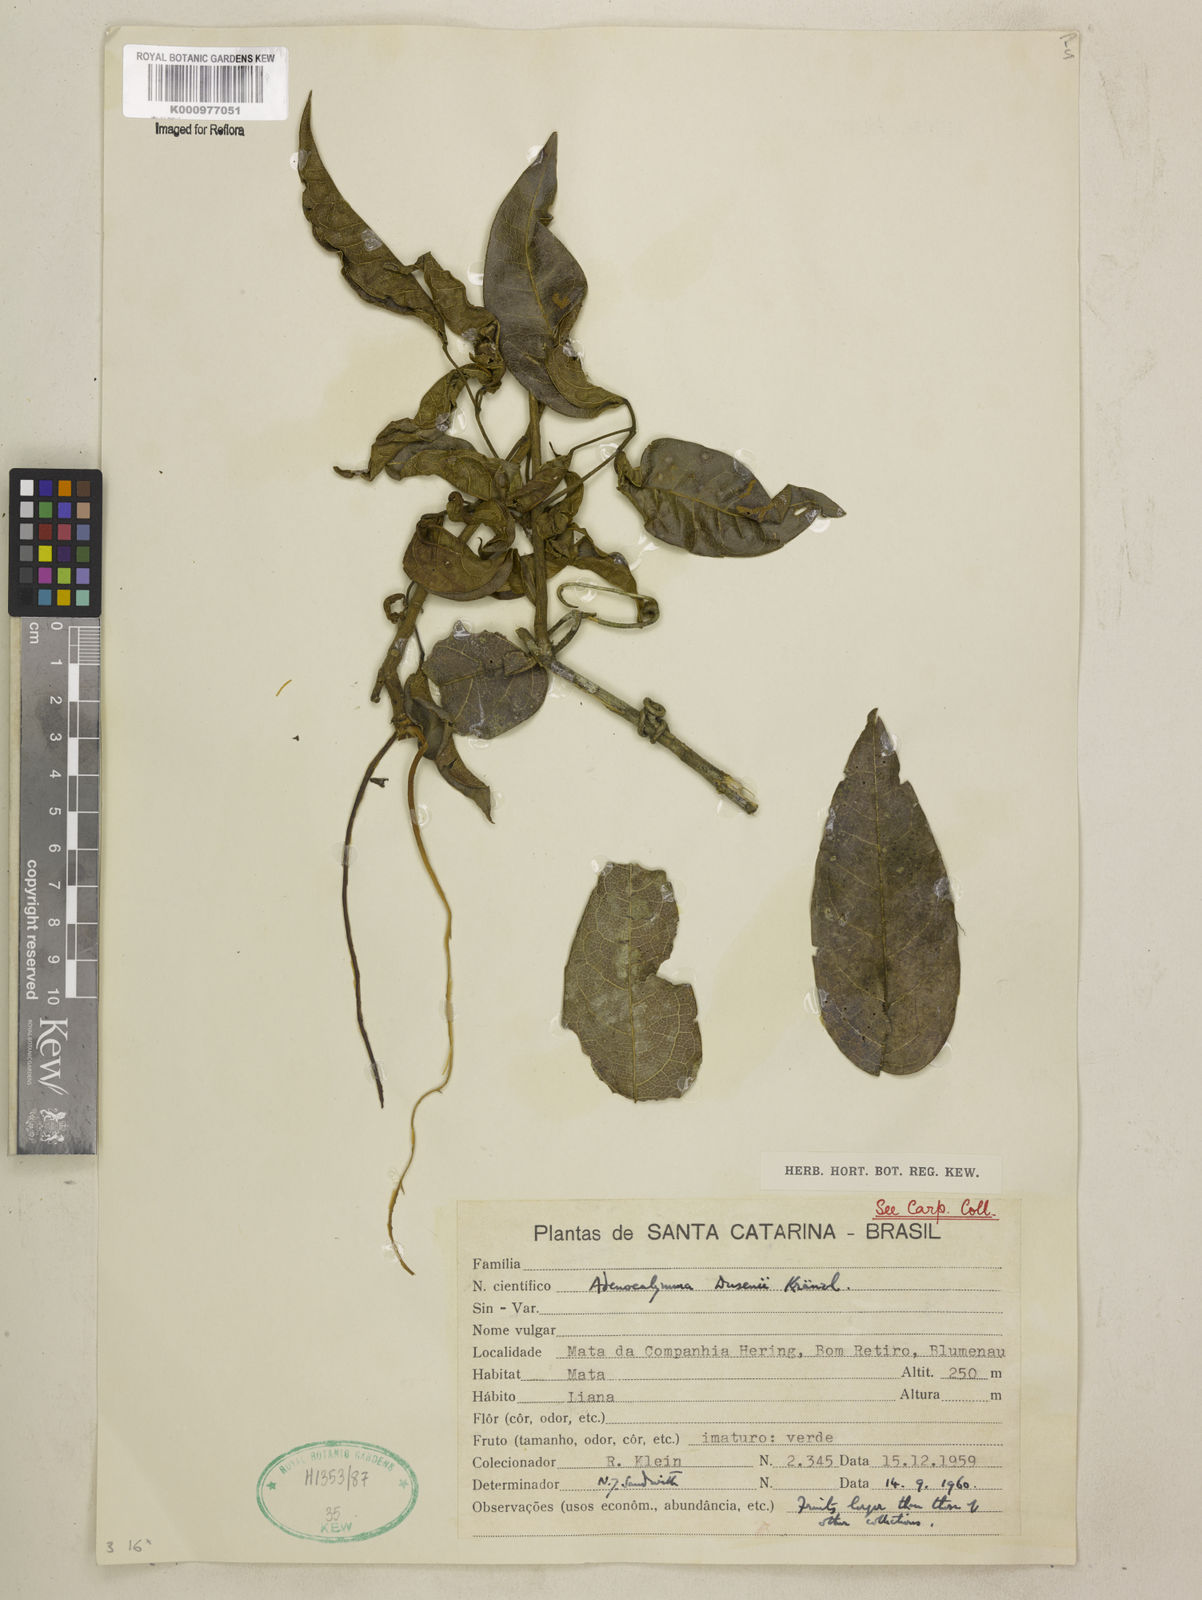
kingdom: Plantae
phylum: Tracheophyta
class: Magnoliopsida
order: Lamiales
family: Bignoniaceae
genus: Adenocalymma
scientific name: Adenocalymma dusenii
